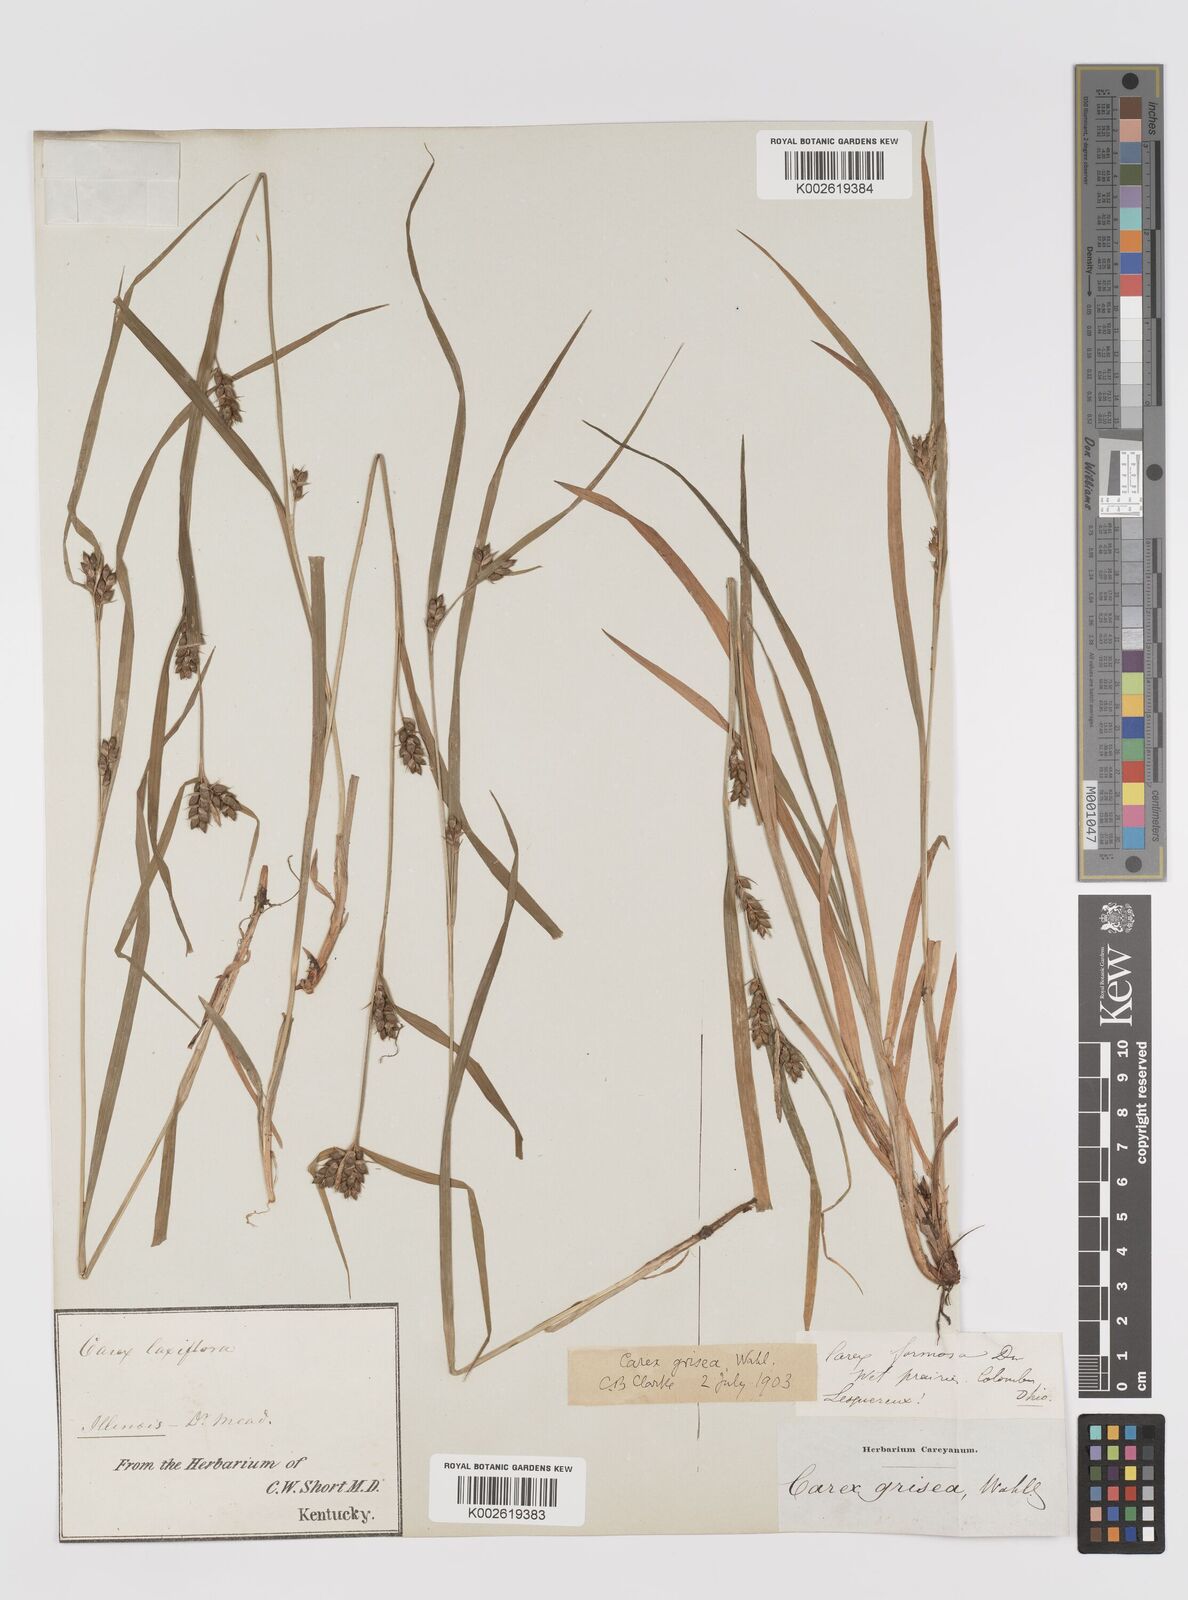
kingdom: Plantae
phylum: Tracheophyta
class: Liliopsida
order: Poales
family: Cyperaceae
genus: Carex
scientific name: Carex grisea
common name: Eastern narrow-leaved sedge
